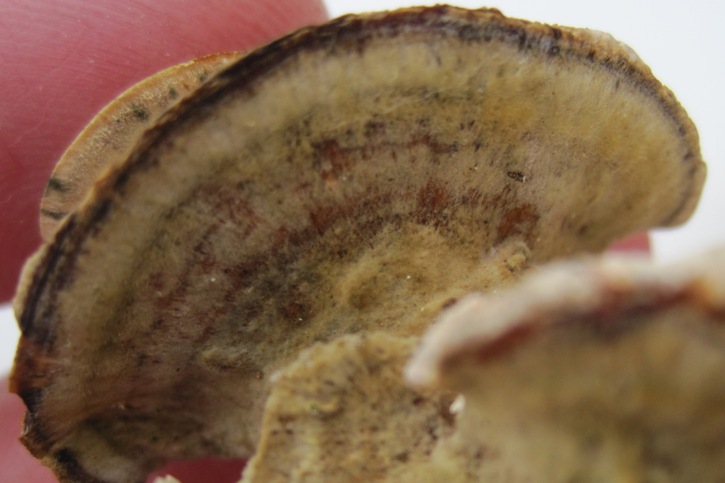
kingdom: Fungi
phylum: Basidiomycota
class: Agaricomycetes
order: Polyporales
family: Phanerochaetaceae
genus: Bjerkandera
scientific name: Bjerkandera fumosa
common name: grågul sodporesvamp
